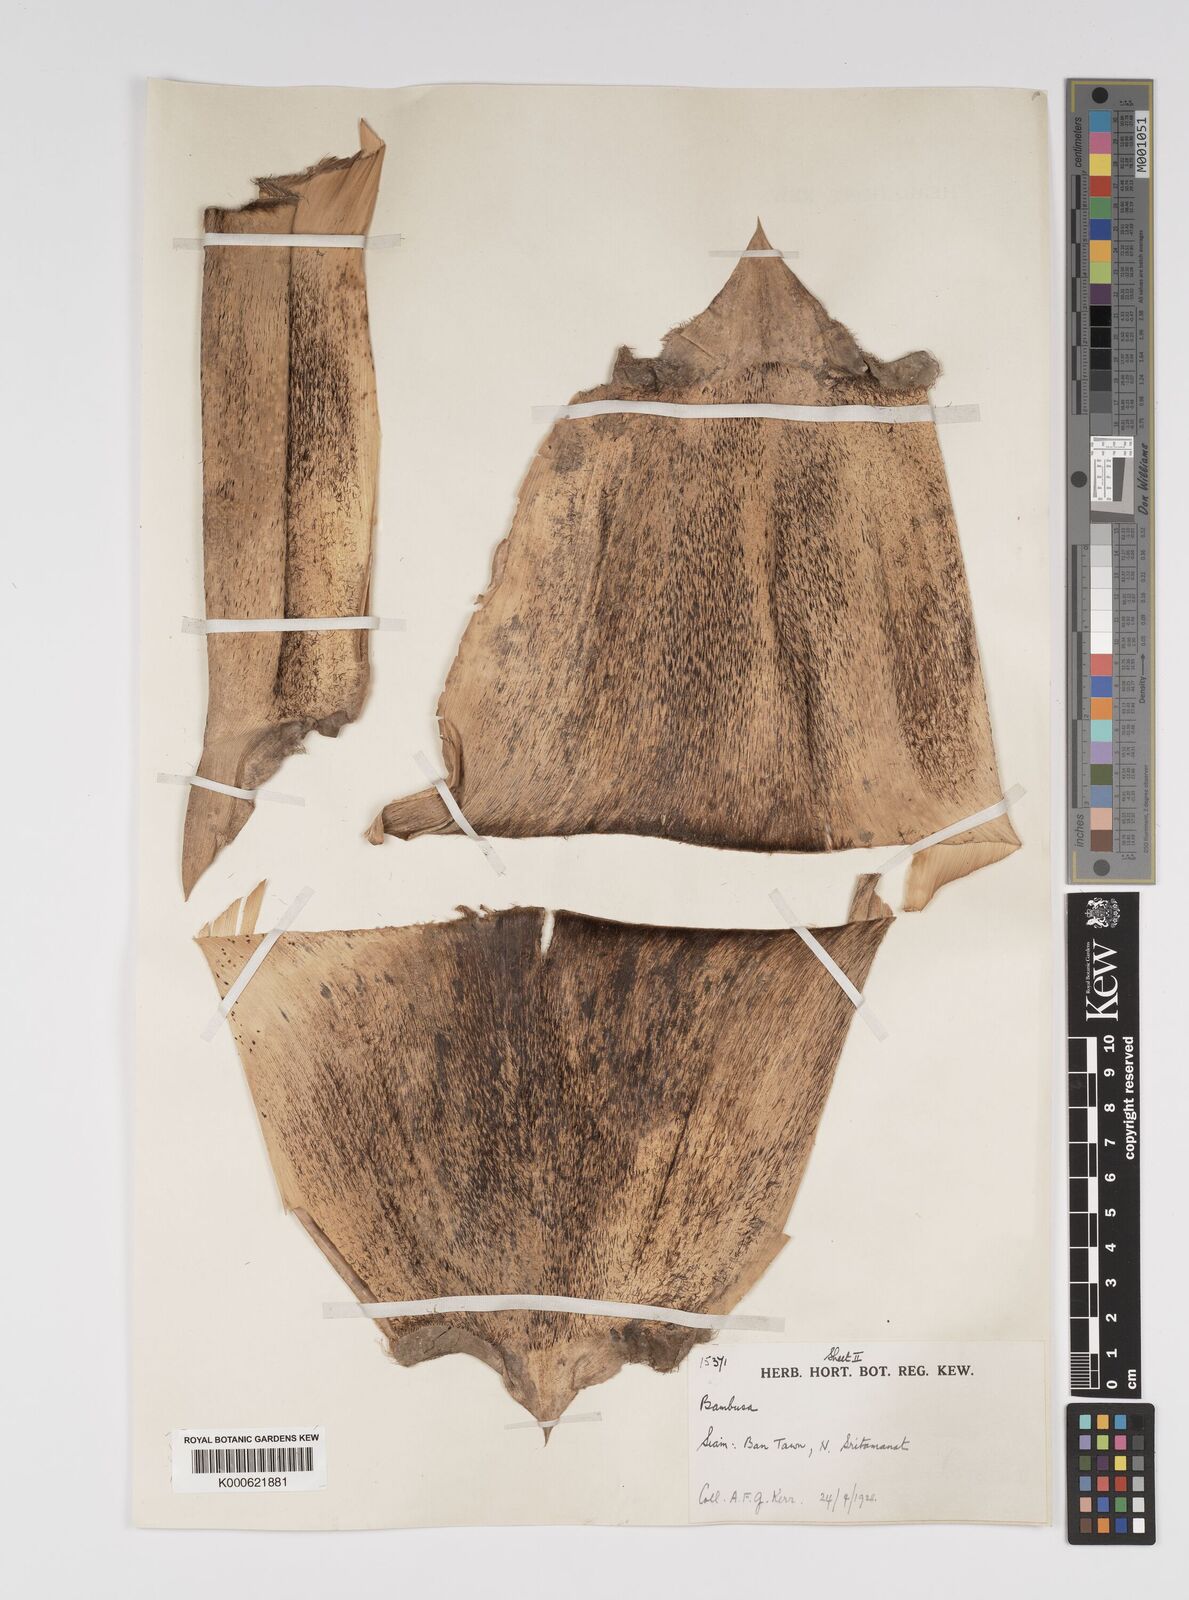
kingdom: Plantae
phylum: Tracheophyta
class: Liliopsida
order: Poales
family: Poaceae
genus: Bambusa
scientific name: Bambusa tulda
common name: Bengal bamboo
